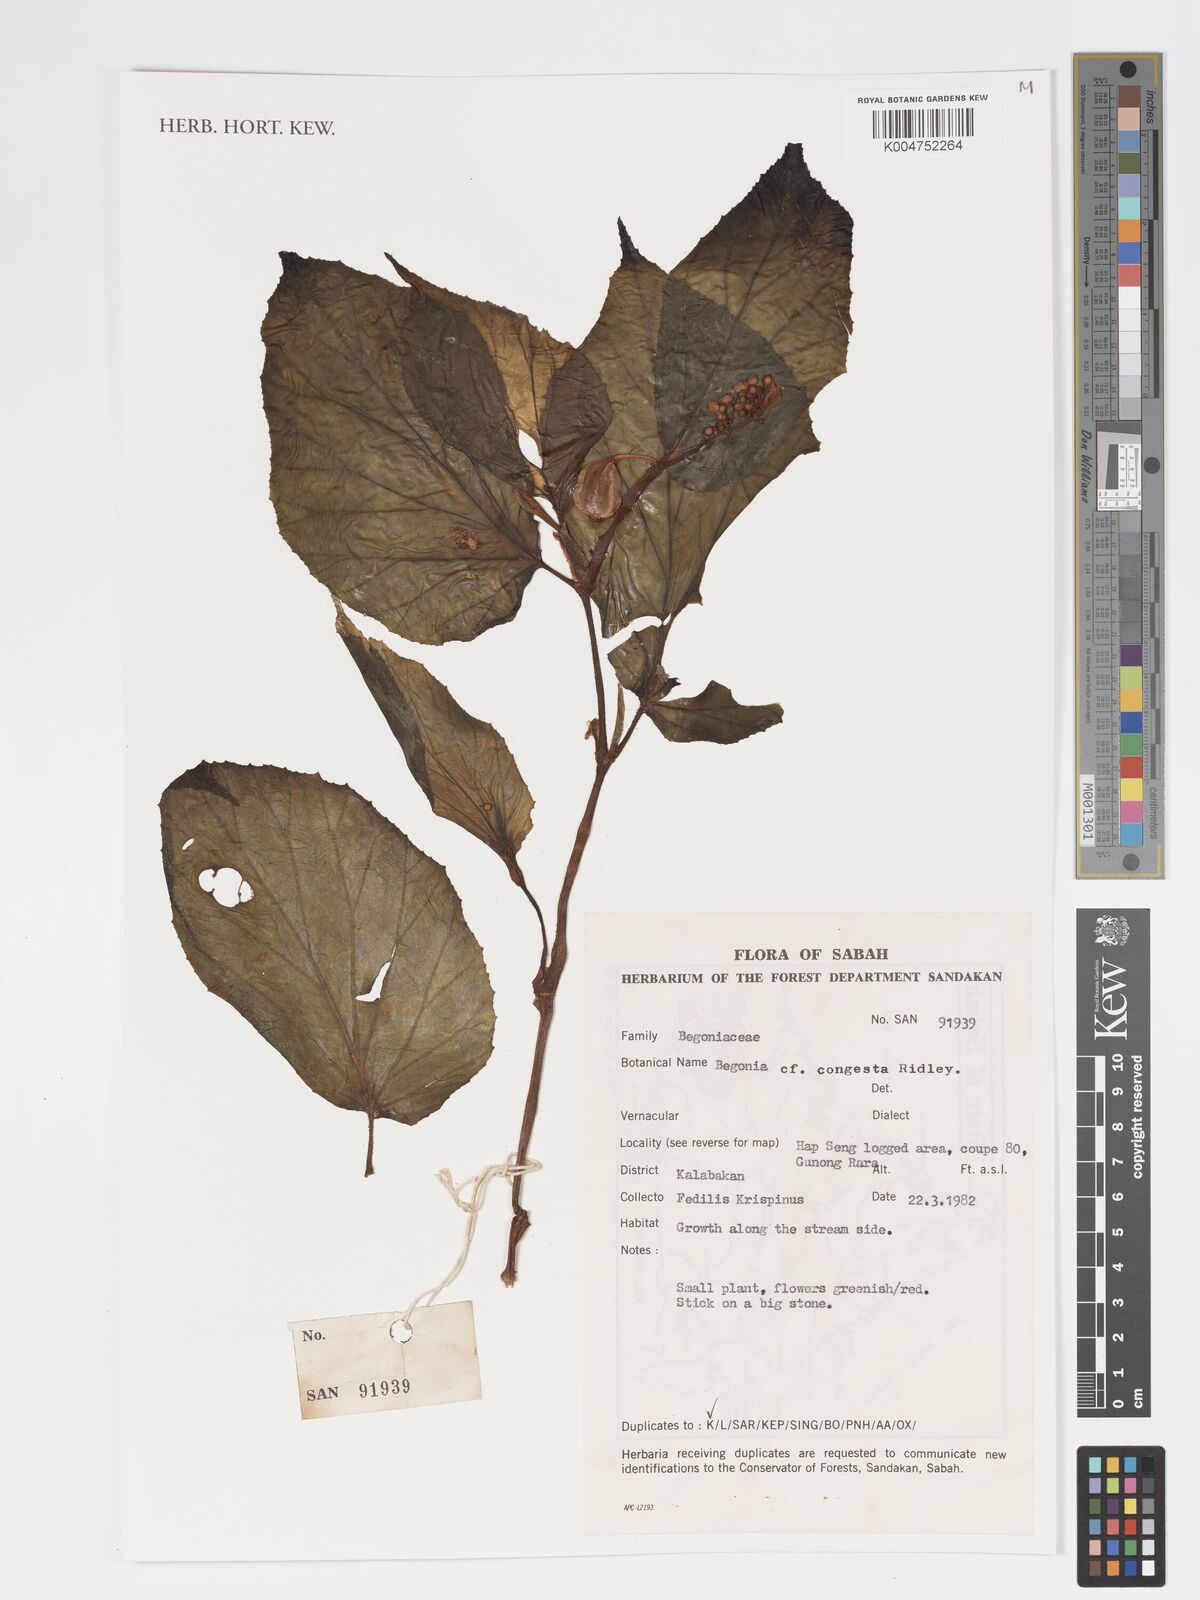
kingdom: Plantae
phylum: Tracheophyta
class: Magnoliopsida
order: Cucurbitales
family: Begoniaceae
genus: Begonia
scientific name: Begonia congesta
